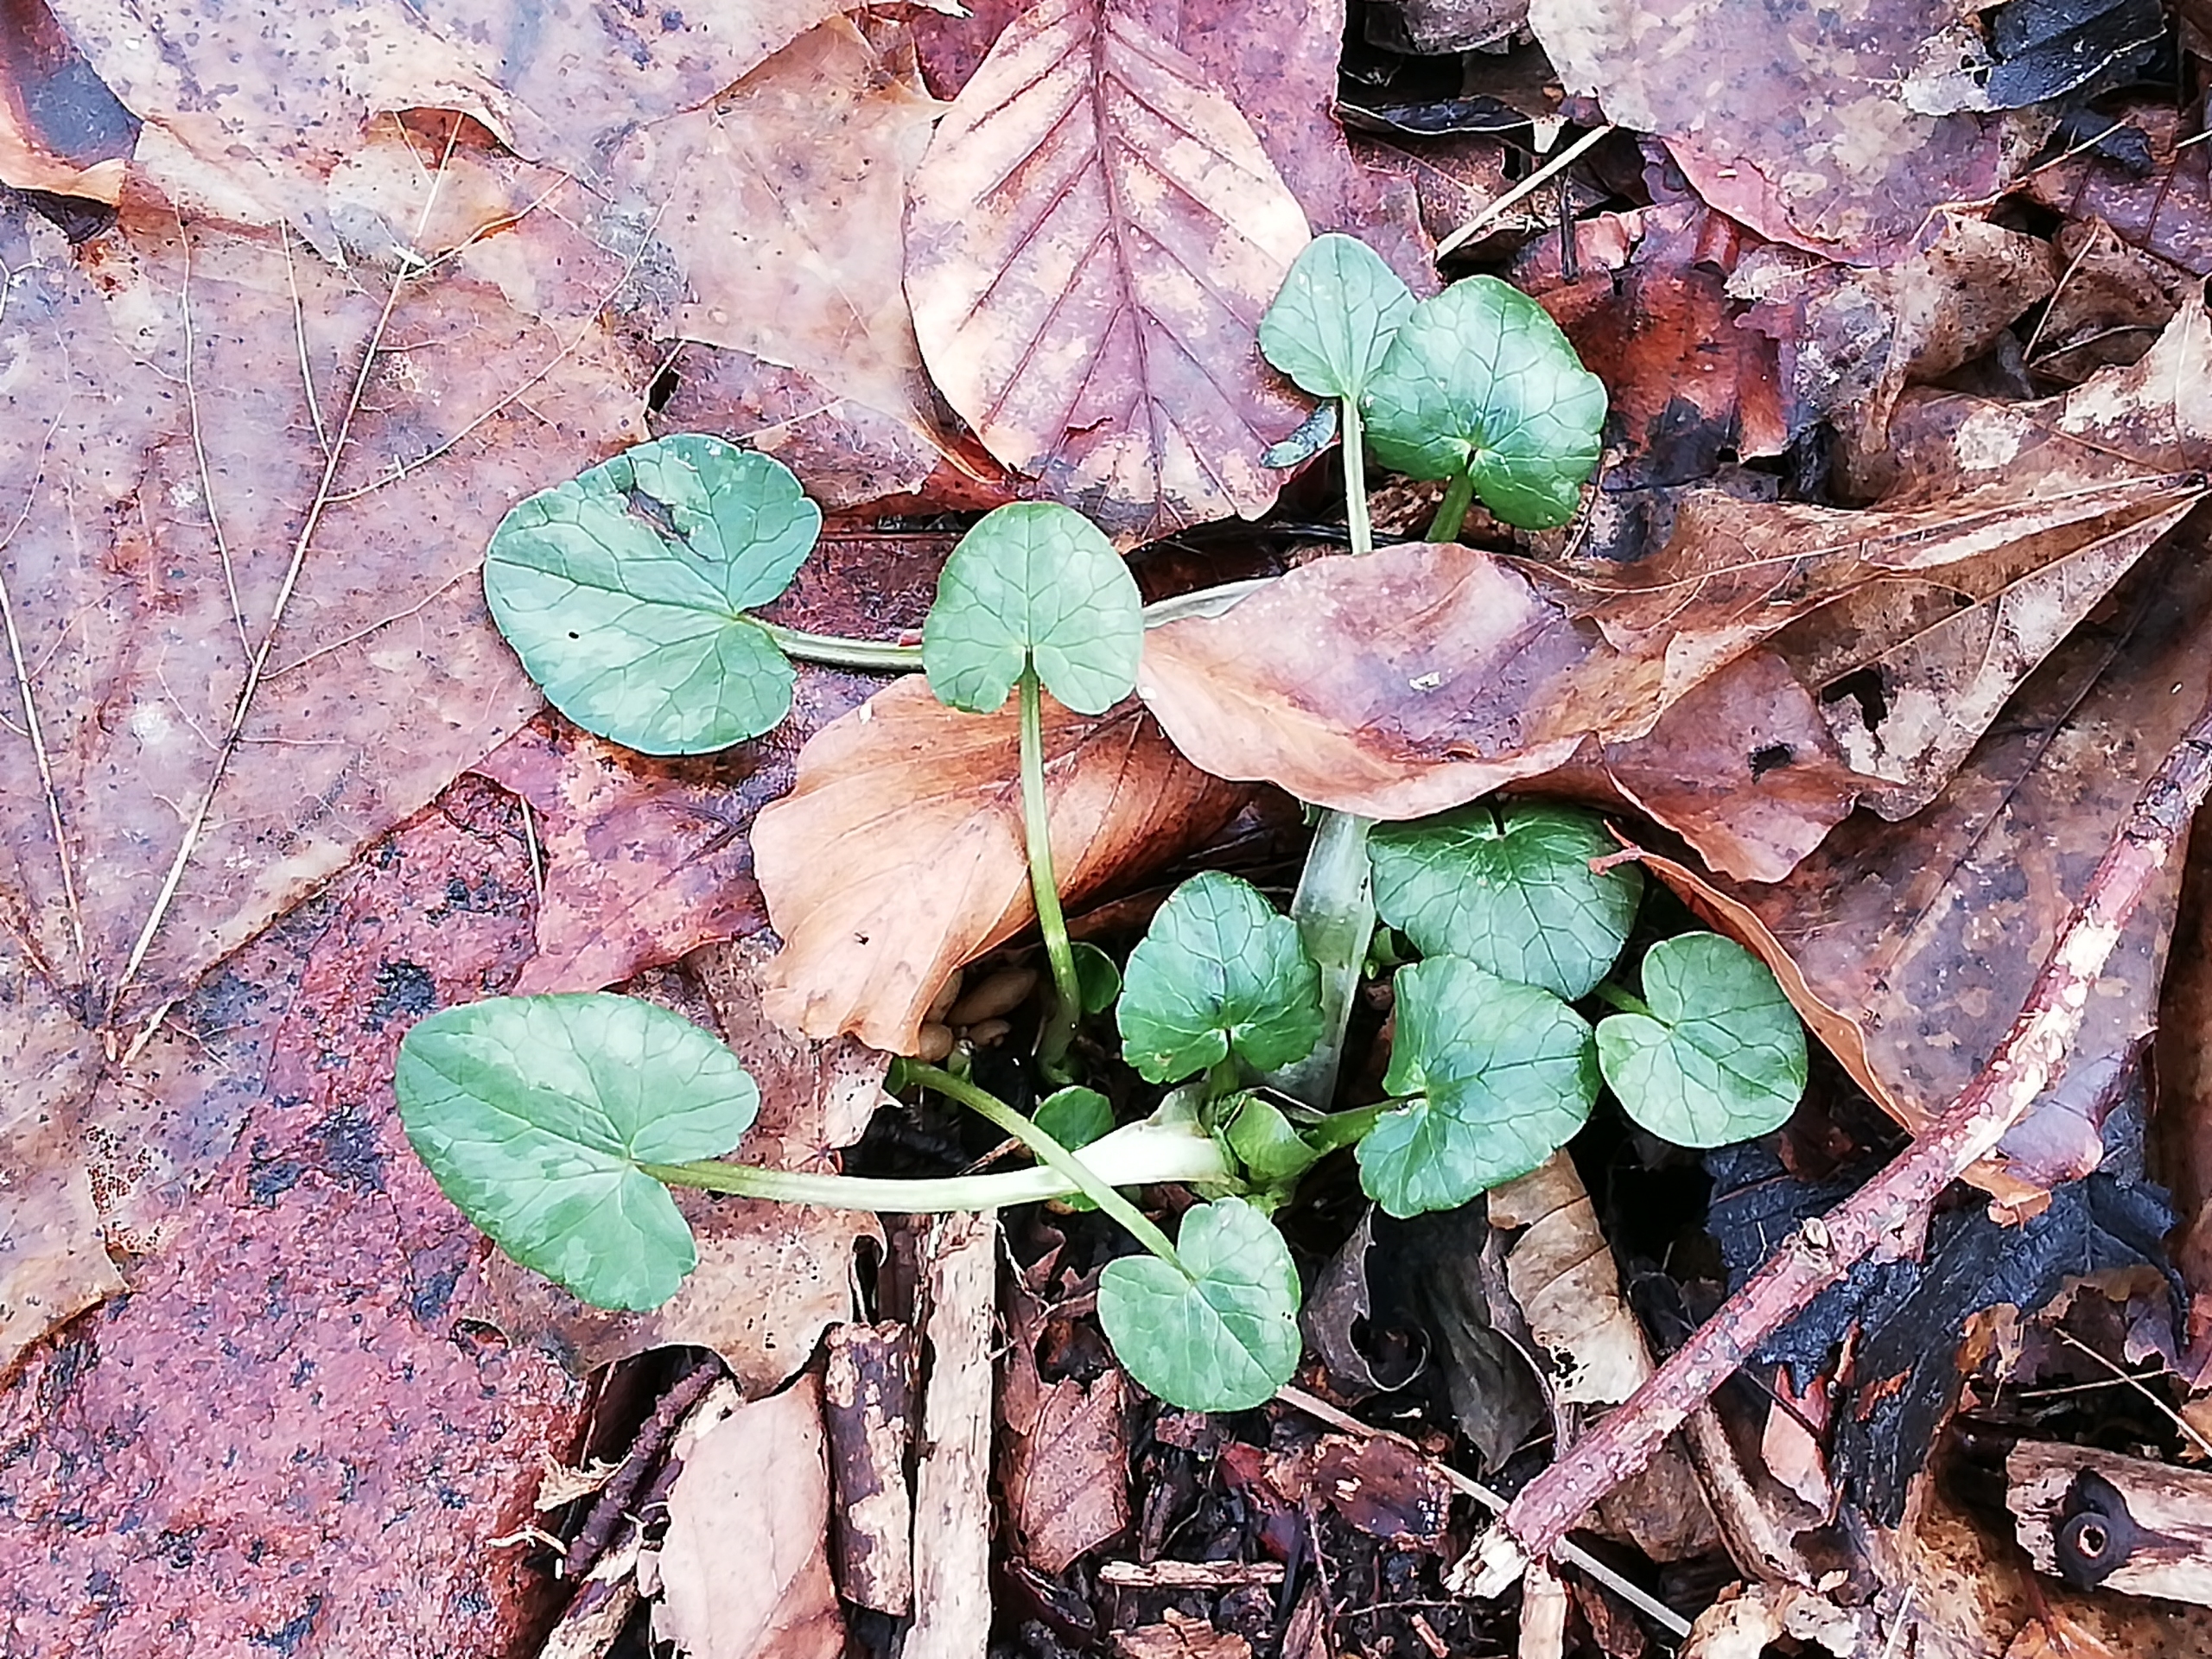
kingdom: Plantae
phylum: Tracheophyta
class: Magnoliopsida
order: Ranunculales
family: Ranunculaceae
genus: Ficaria
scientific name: Ficaria verna
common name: Vorterod
